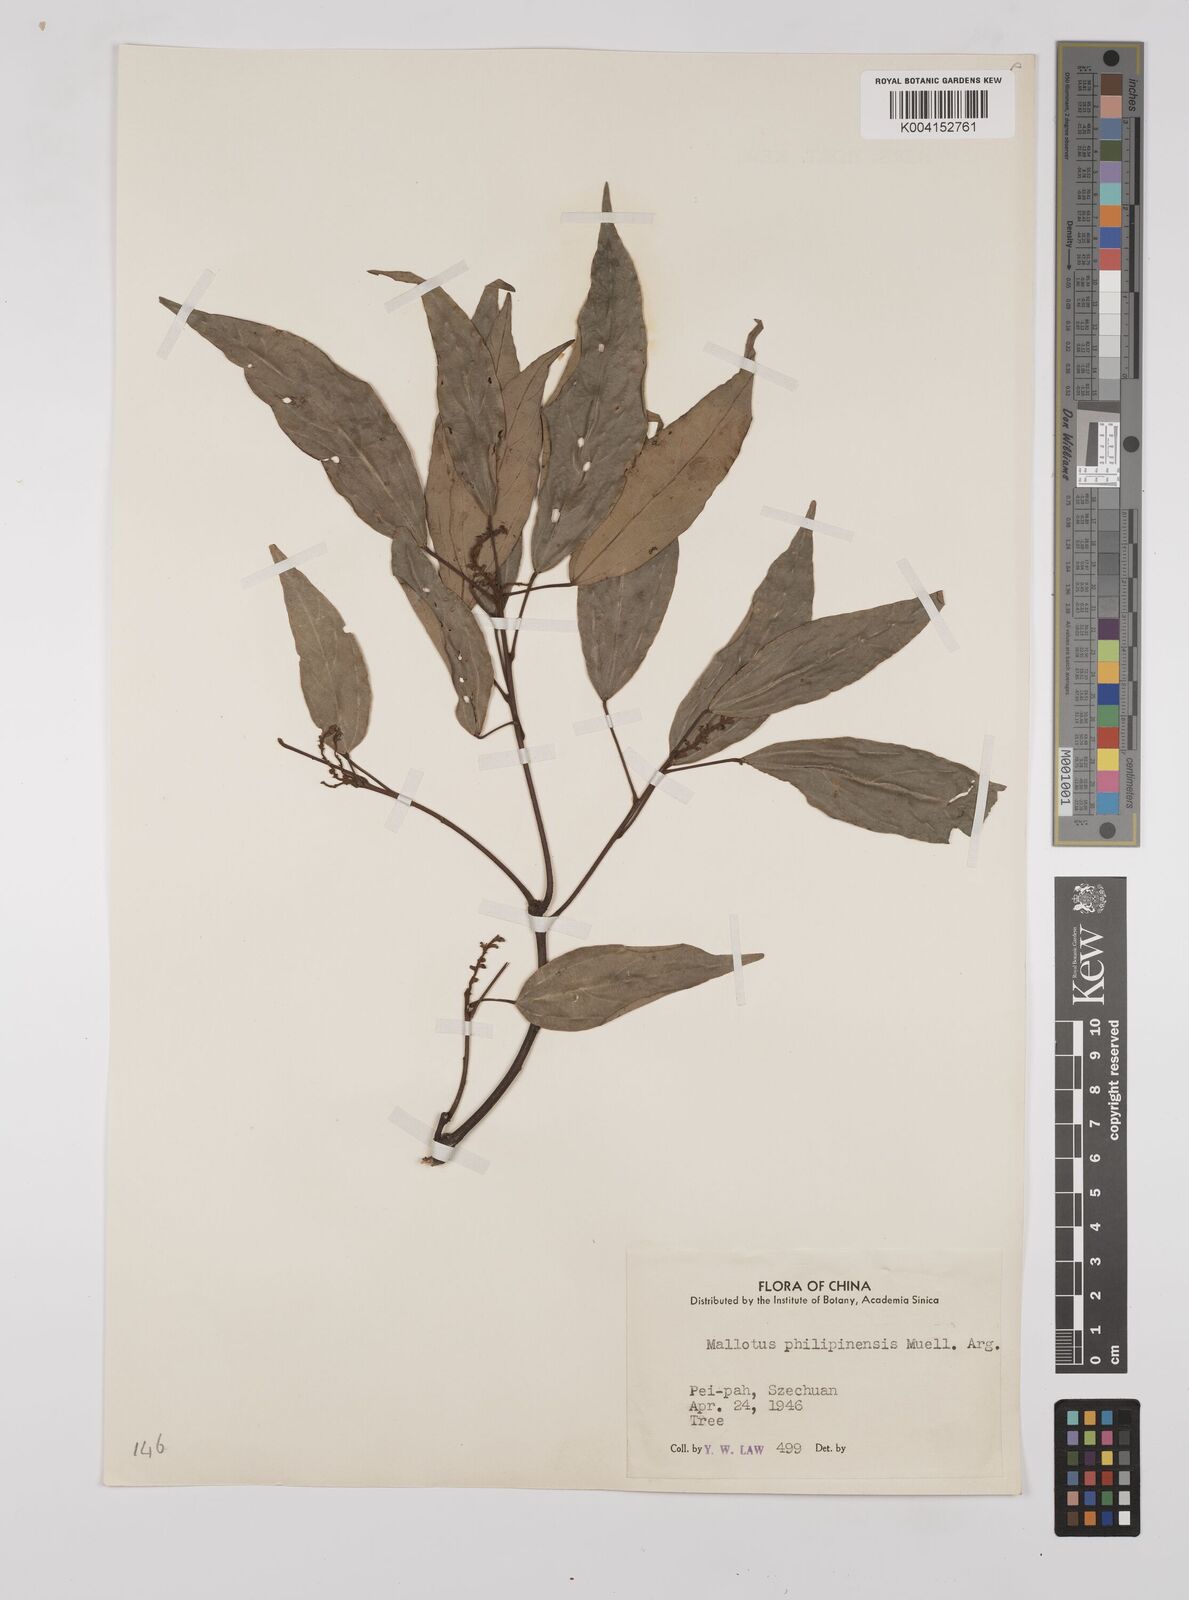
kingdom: Plantae
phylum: Tracheophyta
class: Magnoliopsida
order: Malpighiales
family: Euphorbiaceae
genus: Mallotus
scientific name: Mallotus philippensis
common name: Kamala tree
